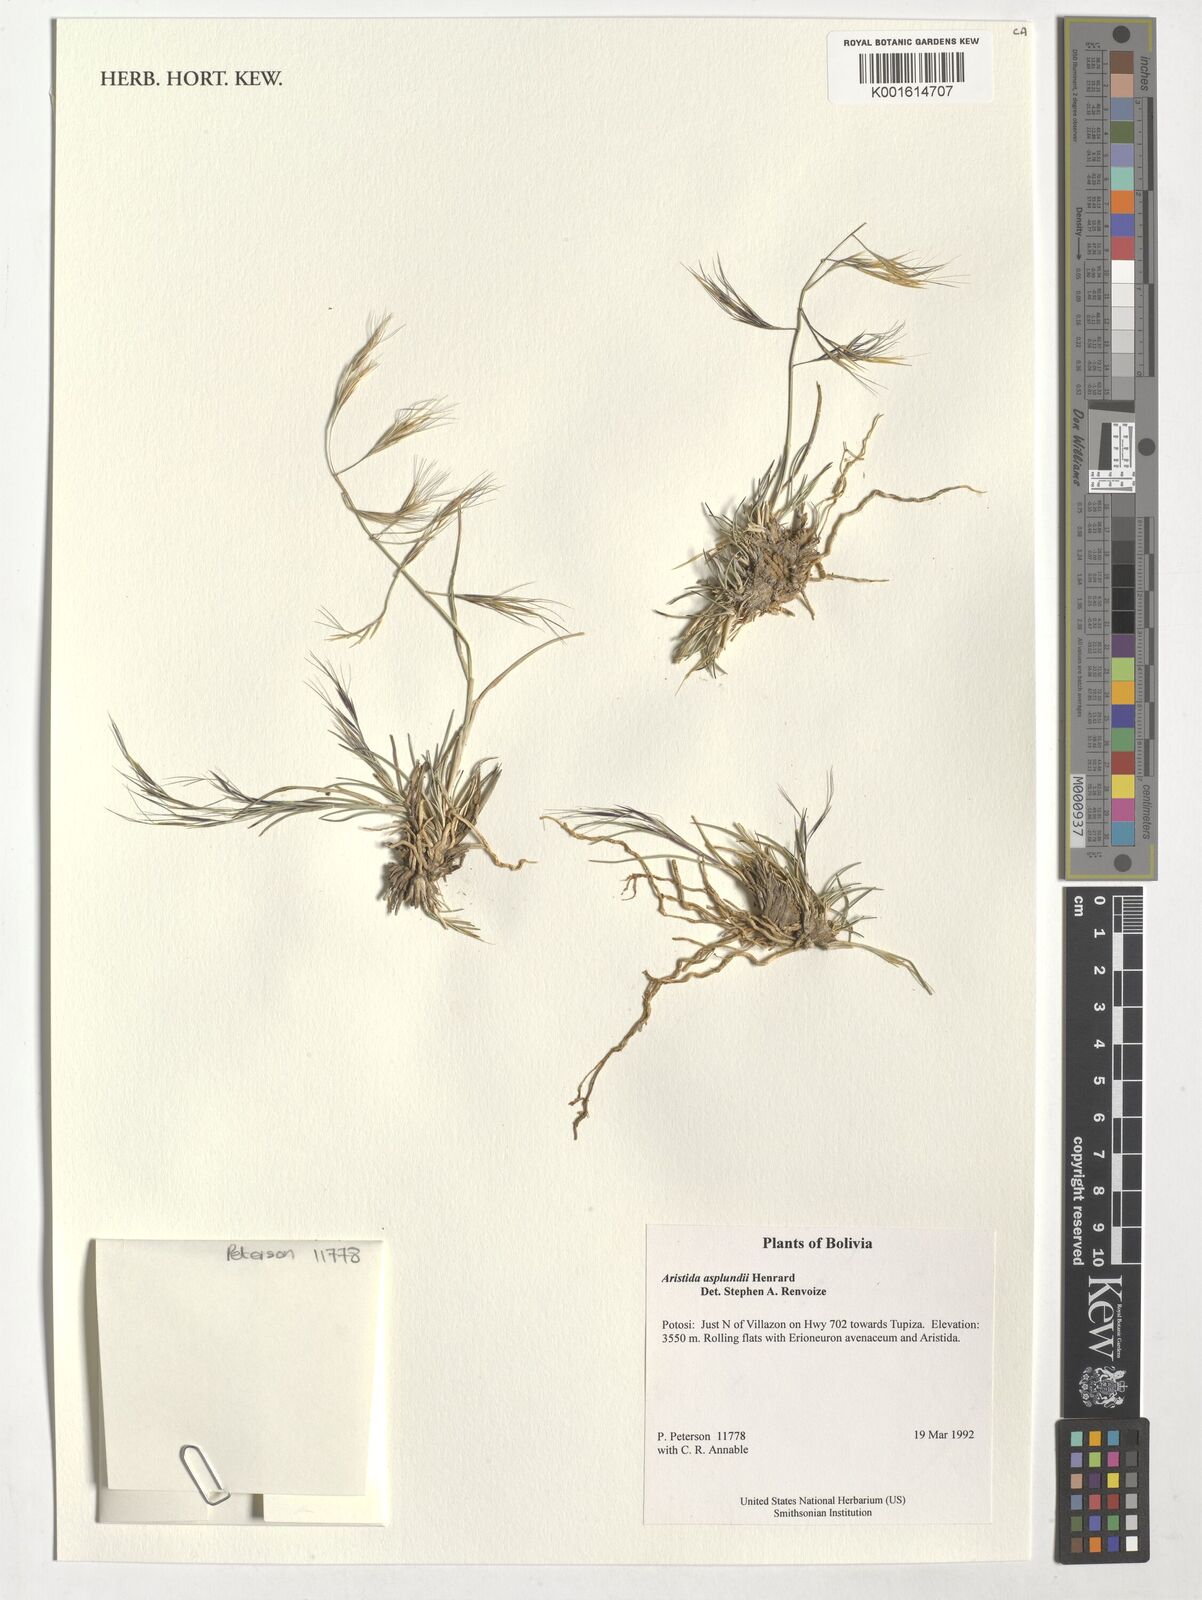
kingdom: Plantae
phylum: Tracheophyta
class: Liliopsida
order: Poales
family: Poaceae
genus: Aristida
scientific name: Aristida asplundii
